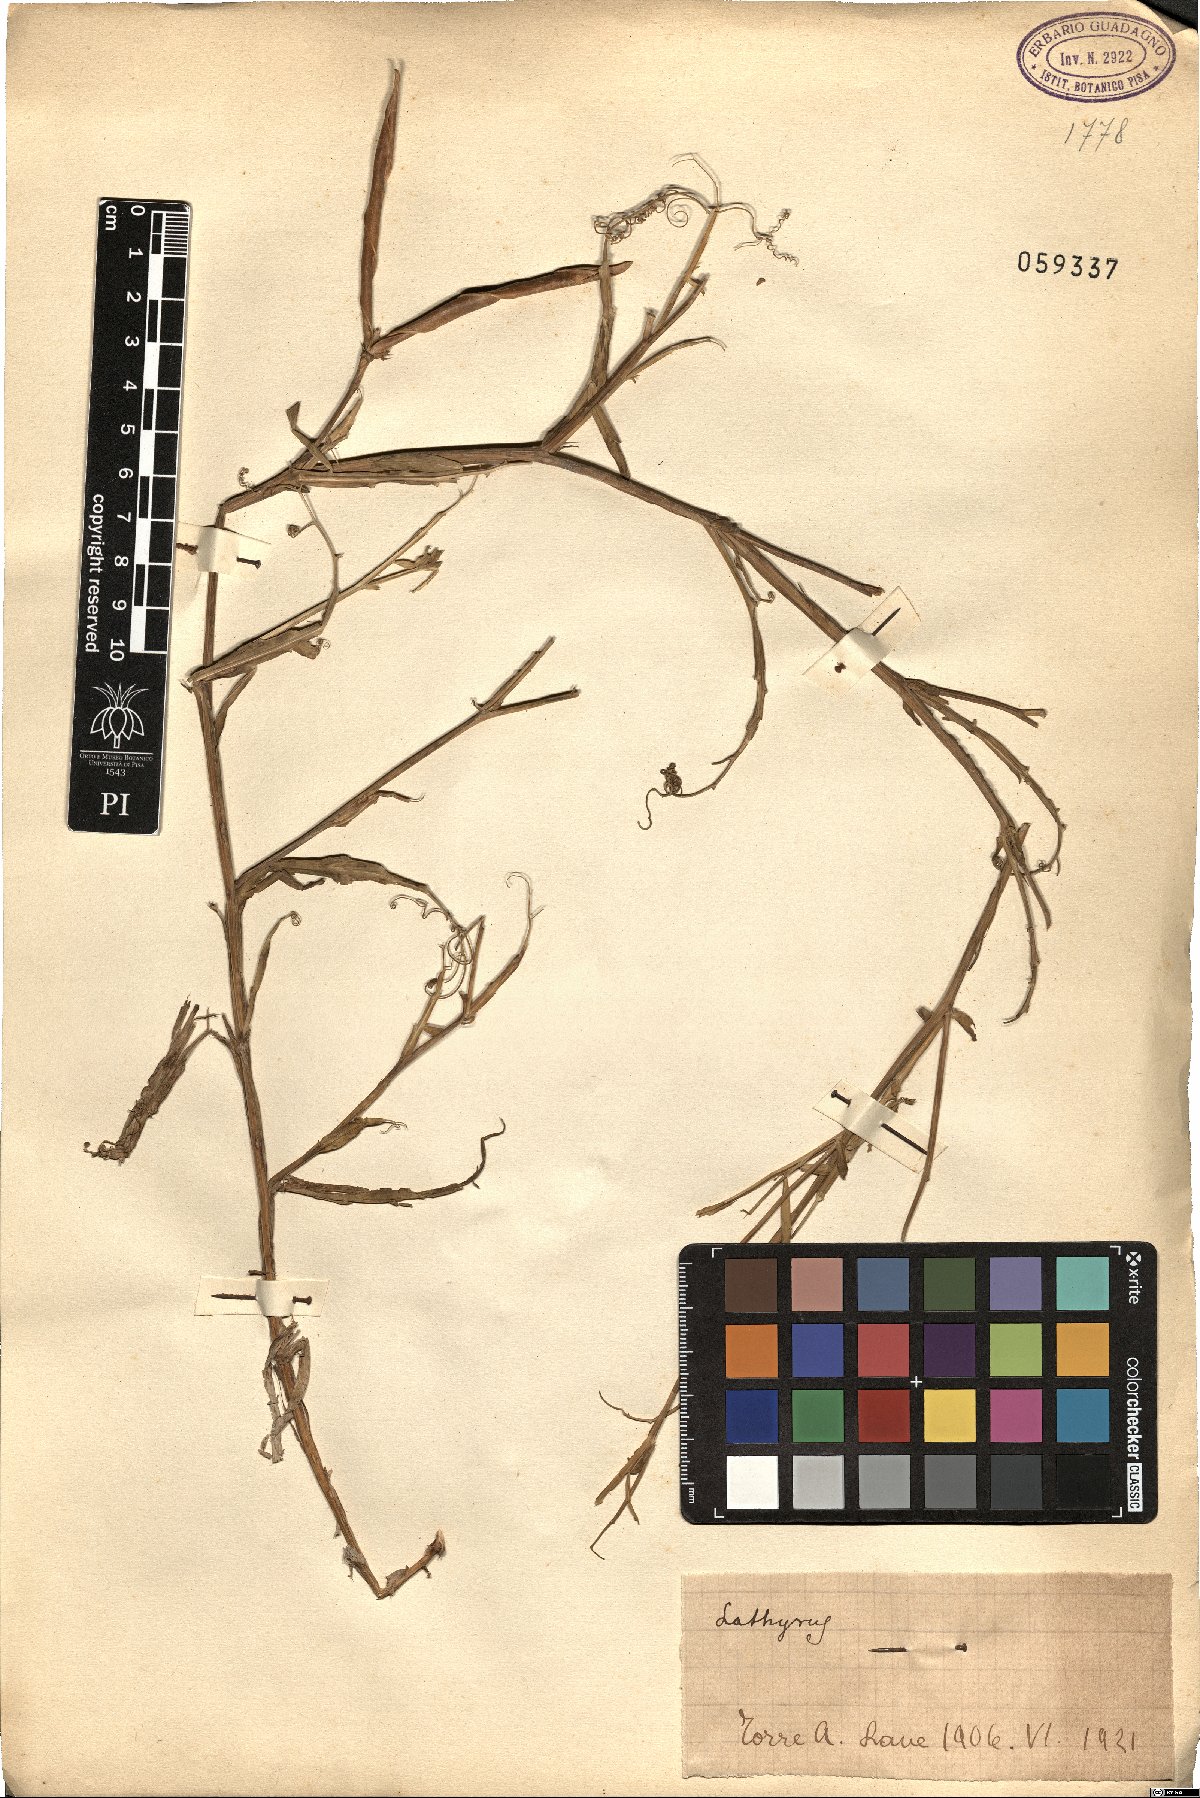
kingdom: Plantae
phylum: Tracheophyta
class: Magnoliopsida
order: Fabales
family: Fabaceae
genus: Lathyrus
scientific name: Lathyrus
